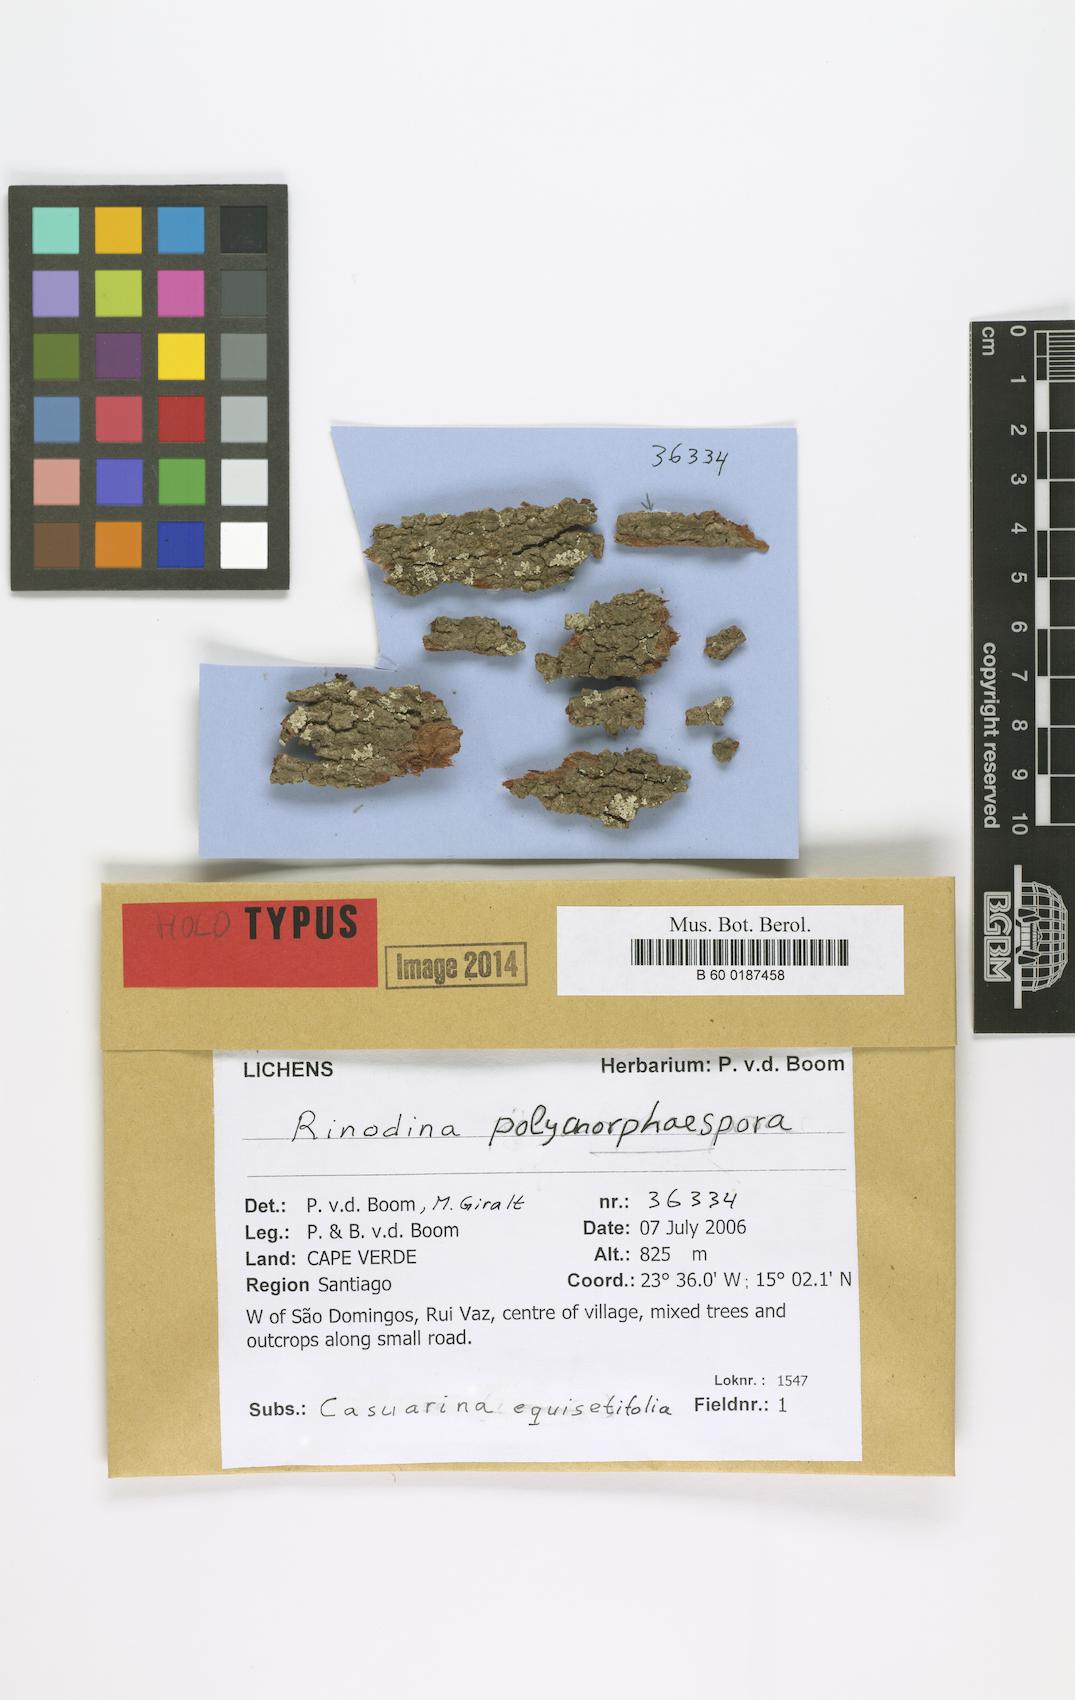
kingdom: Fungi
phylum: Ascomycota
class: Lecanoromycetes
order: Caliciales
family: Physciaceae
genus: Rinodina
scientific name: Rinodina polymorphospora
